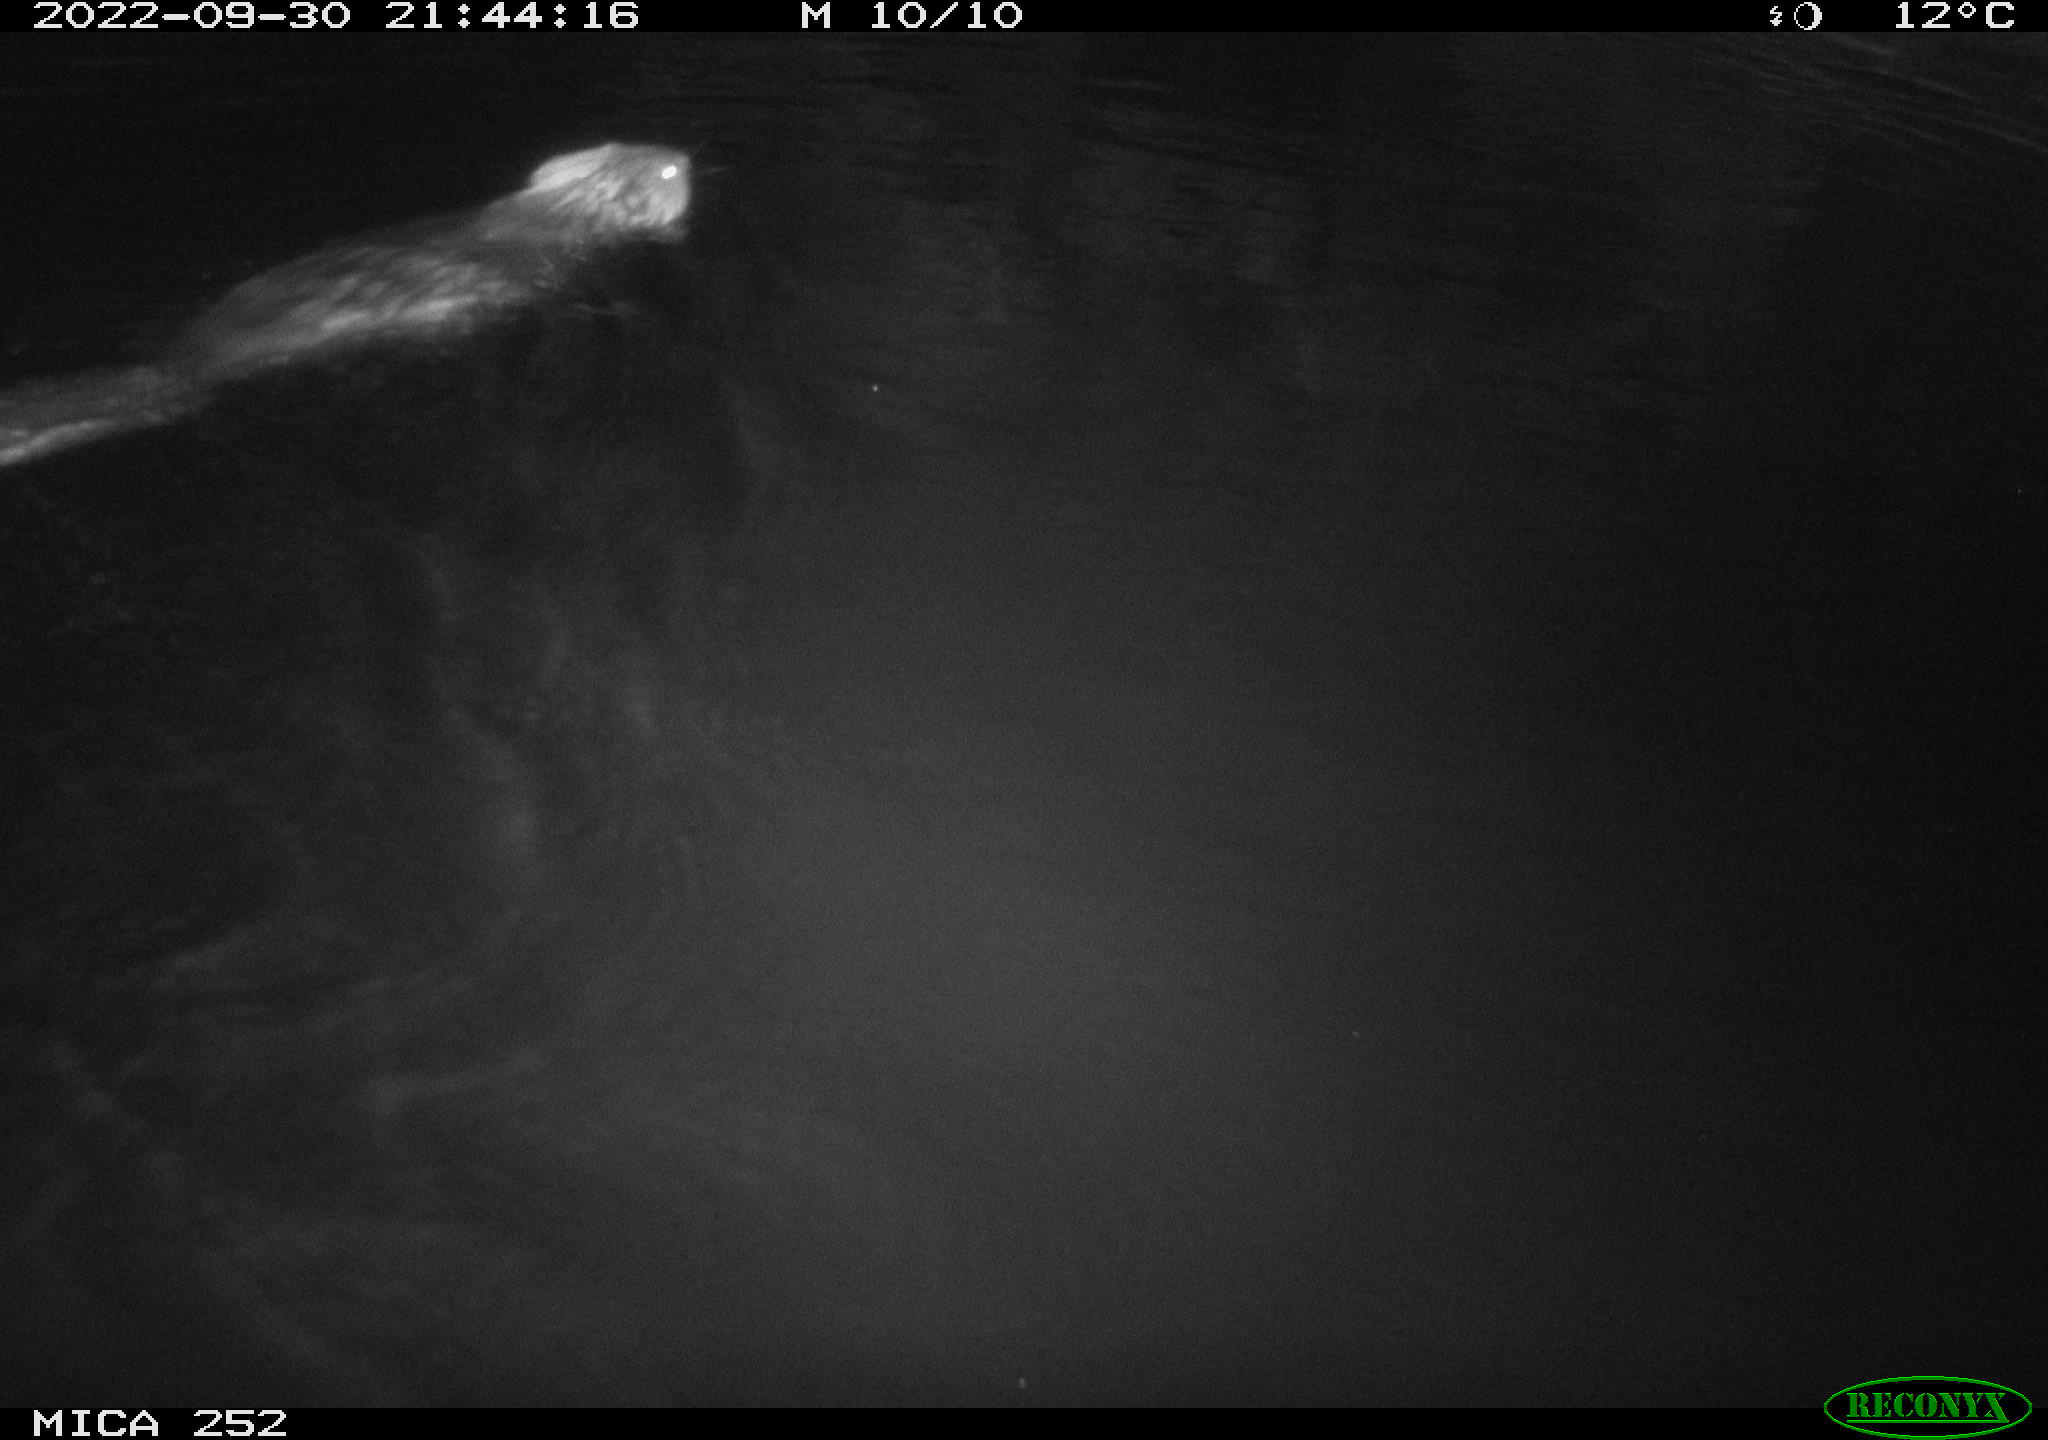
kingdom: Animalia
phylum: Chordata
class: Mammalia
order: Rodentia
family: Castoridae
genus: Castor
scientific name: Castor fiber
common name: Eurasian beaver
